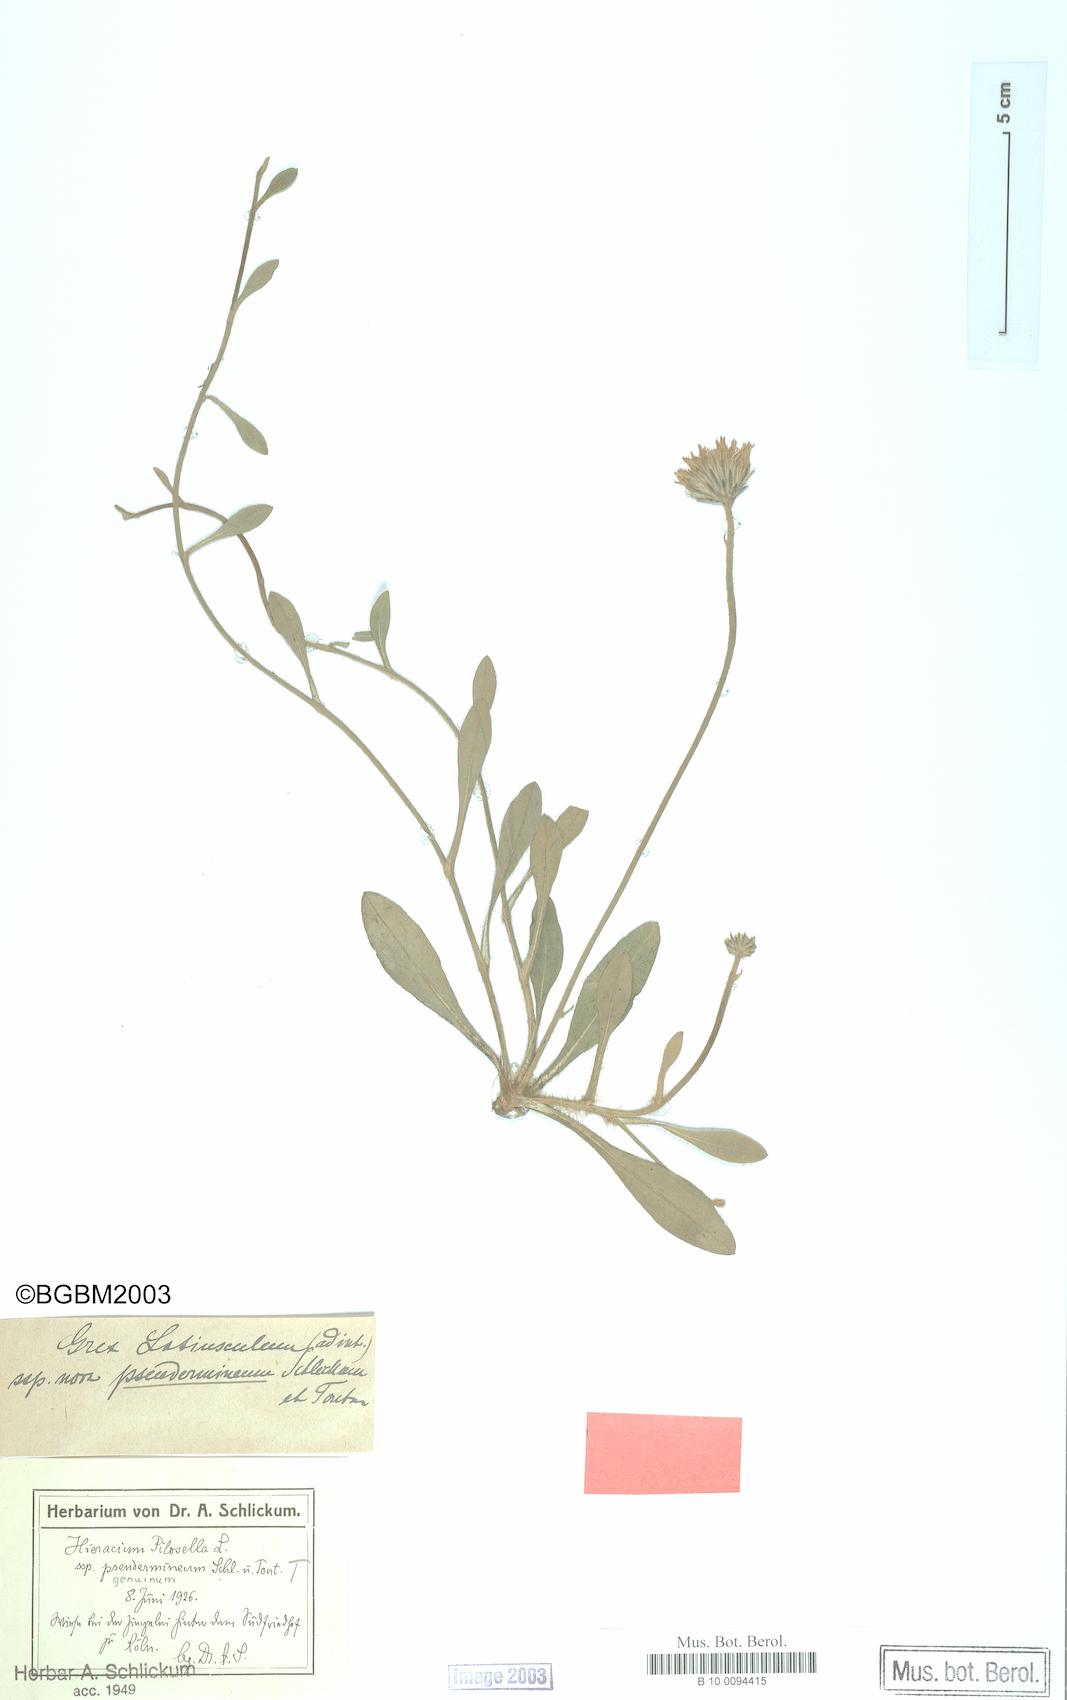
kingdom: Plantae
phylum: Tracheophyta
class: Magnoliopsida
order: Asterales
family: Asteraceae
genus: Pilosella
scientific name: Pilosella officinarum
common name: Mouse-ear hawkweed
